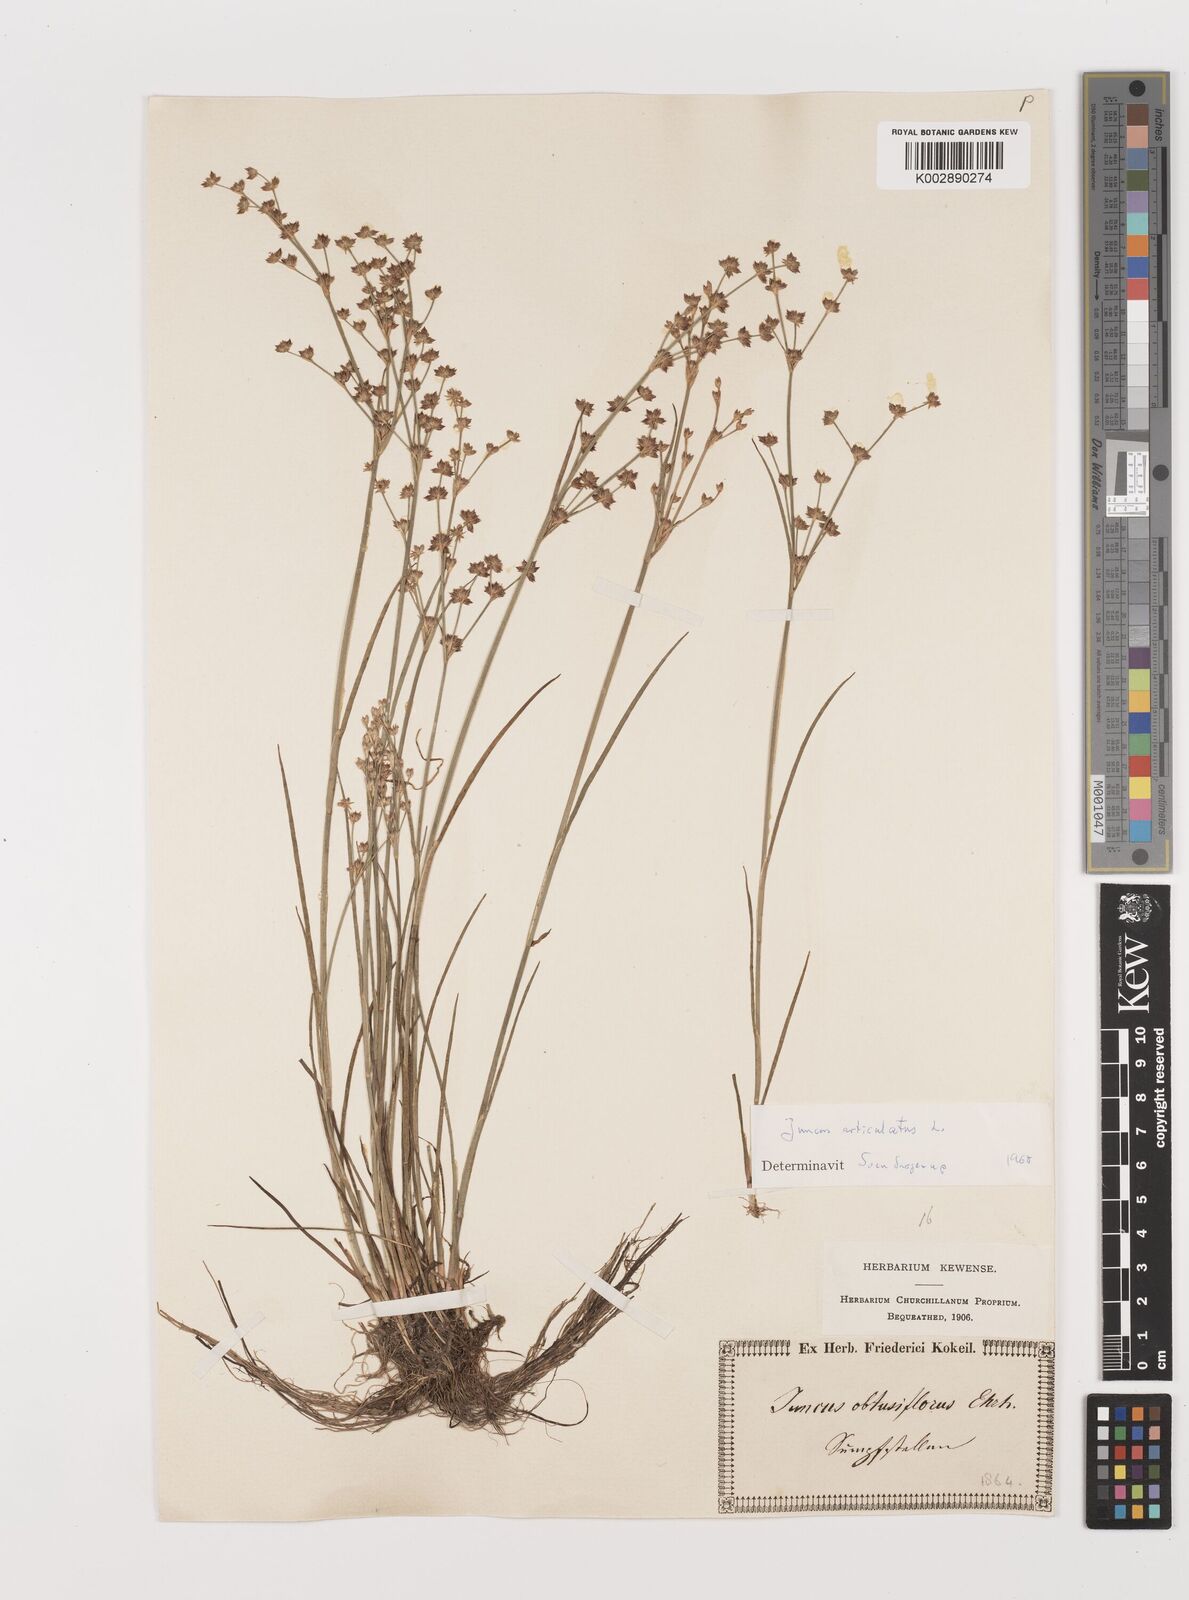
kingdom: Plantae
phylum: Tracheophyta
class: Liliopsida
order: Poales
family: Juncaceae
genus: Juncus
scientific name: Juncus articulatus
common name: Jointed rush
